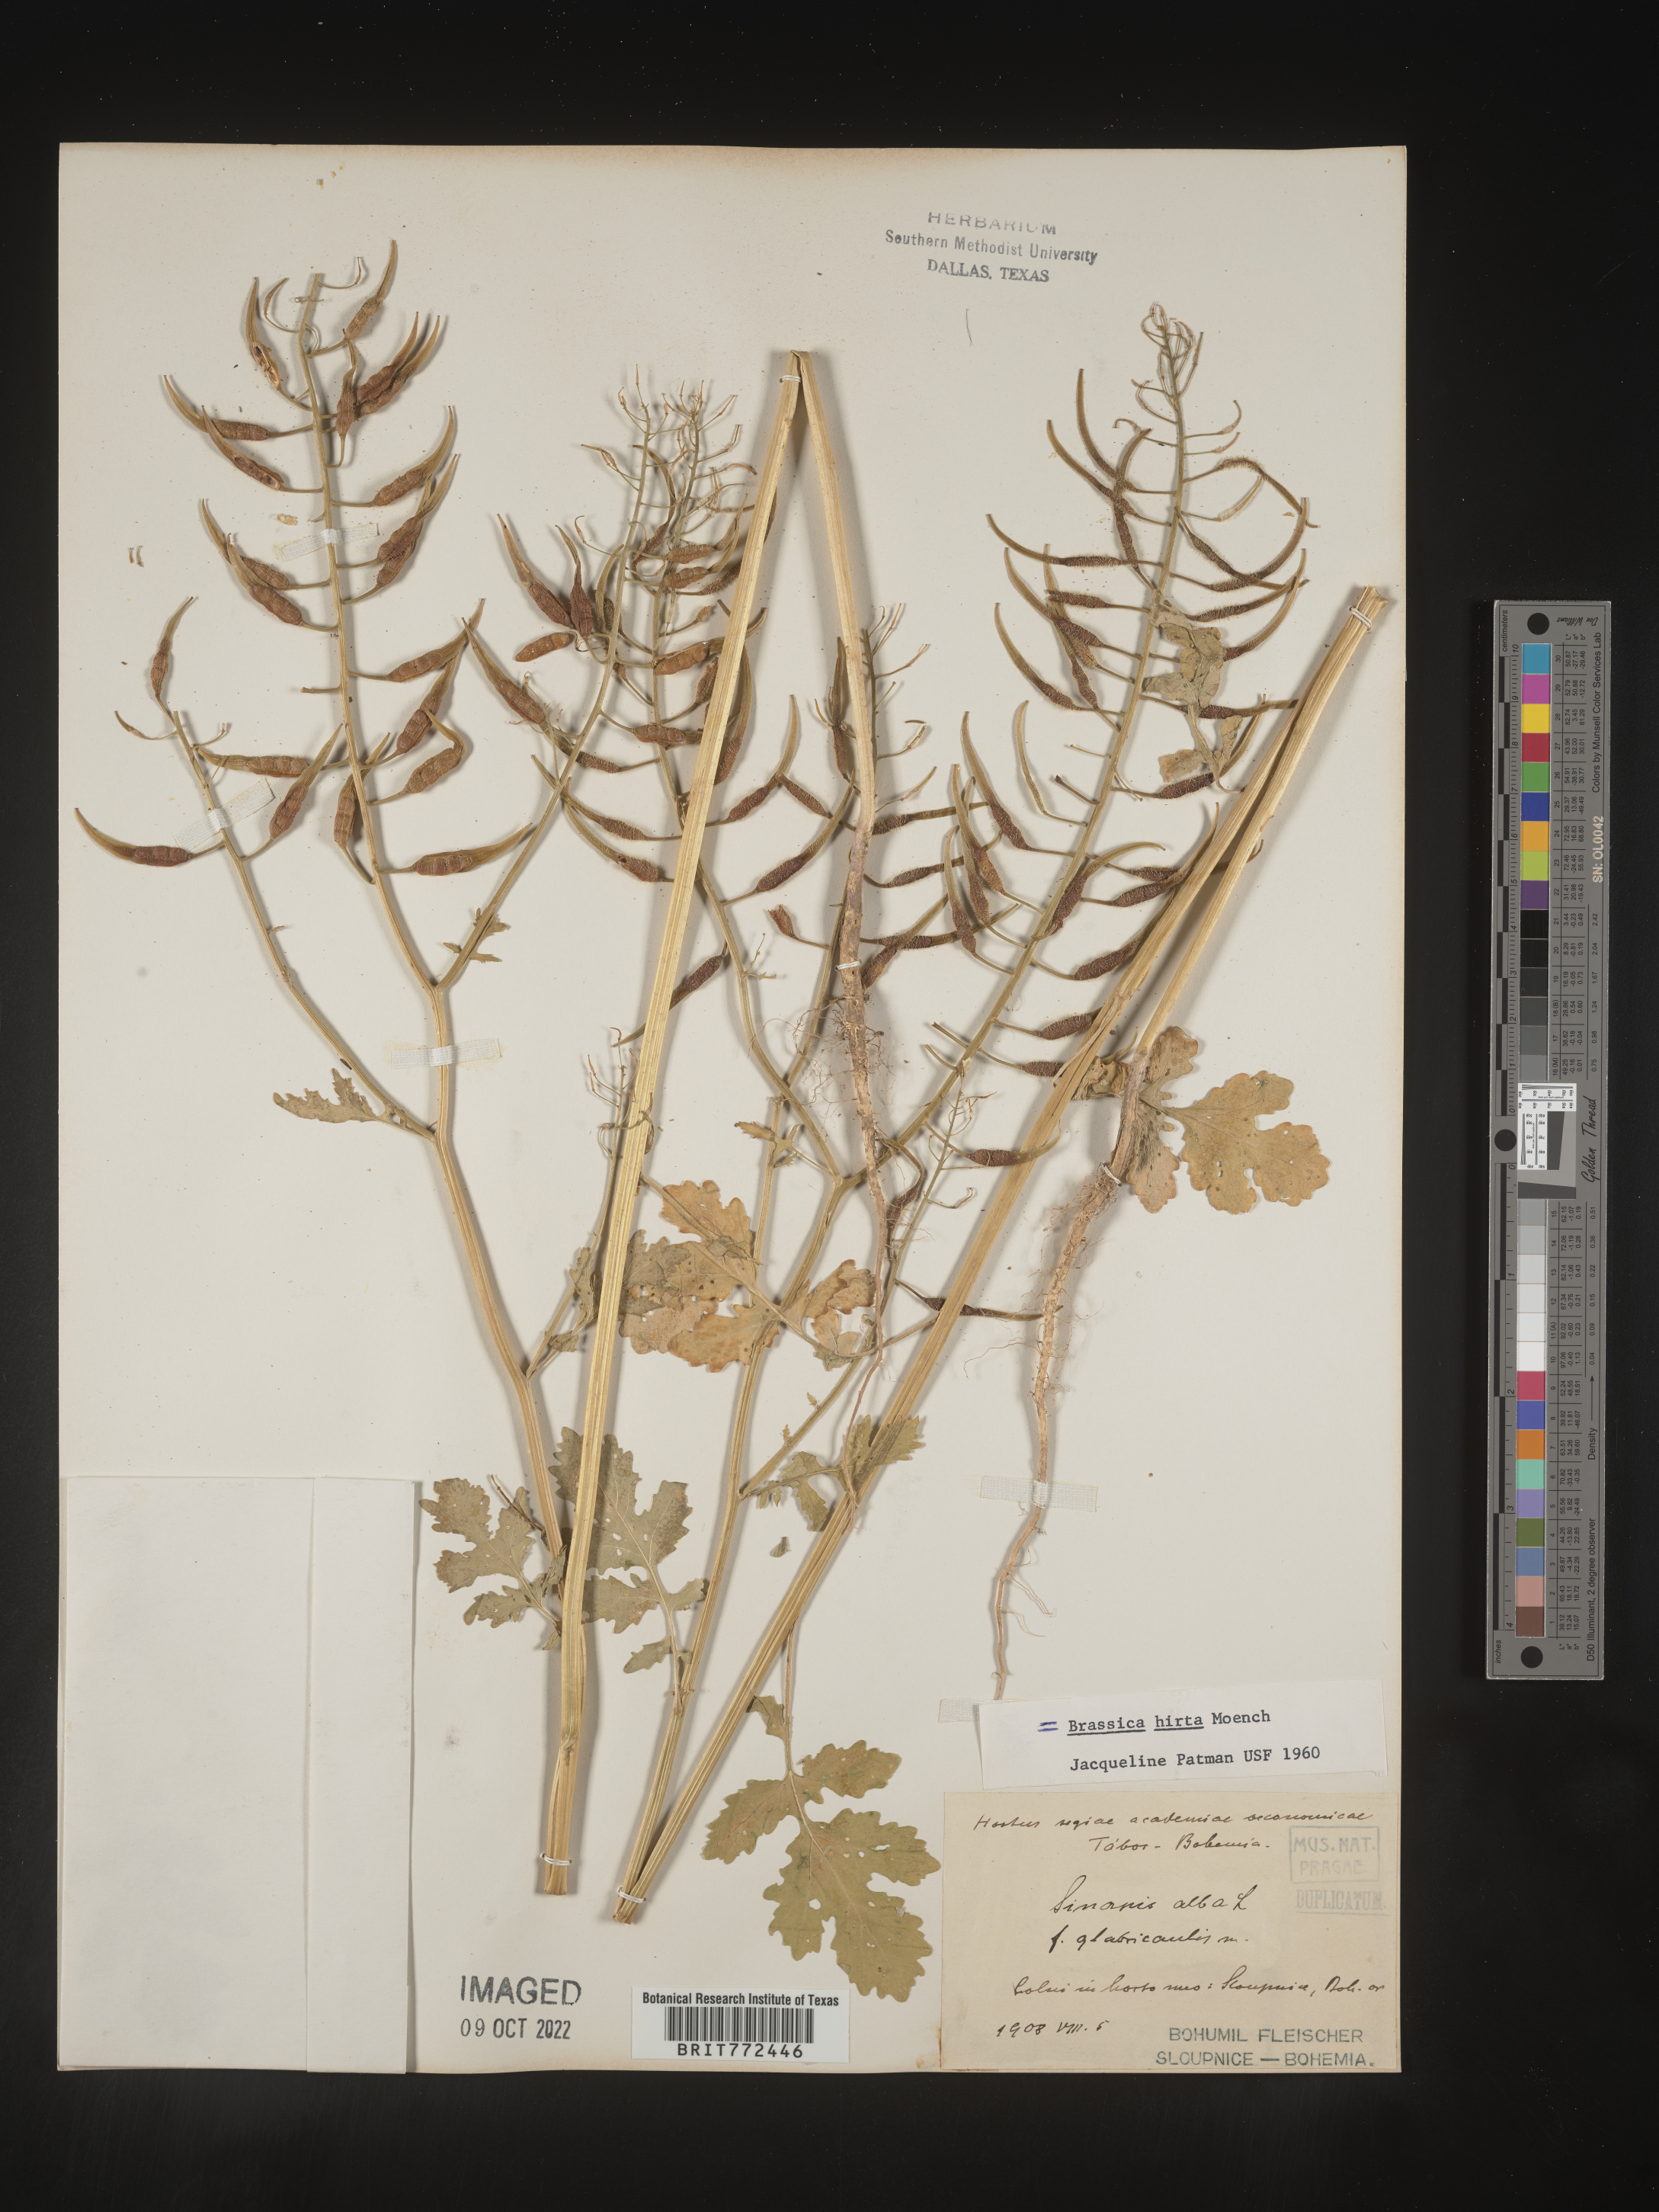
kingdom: Plantae
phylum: Tracheophyta
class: Magnoliopsida
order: Brassicales
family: Brassicaceae
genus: Brassica
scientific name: Brassica
